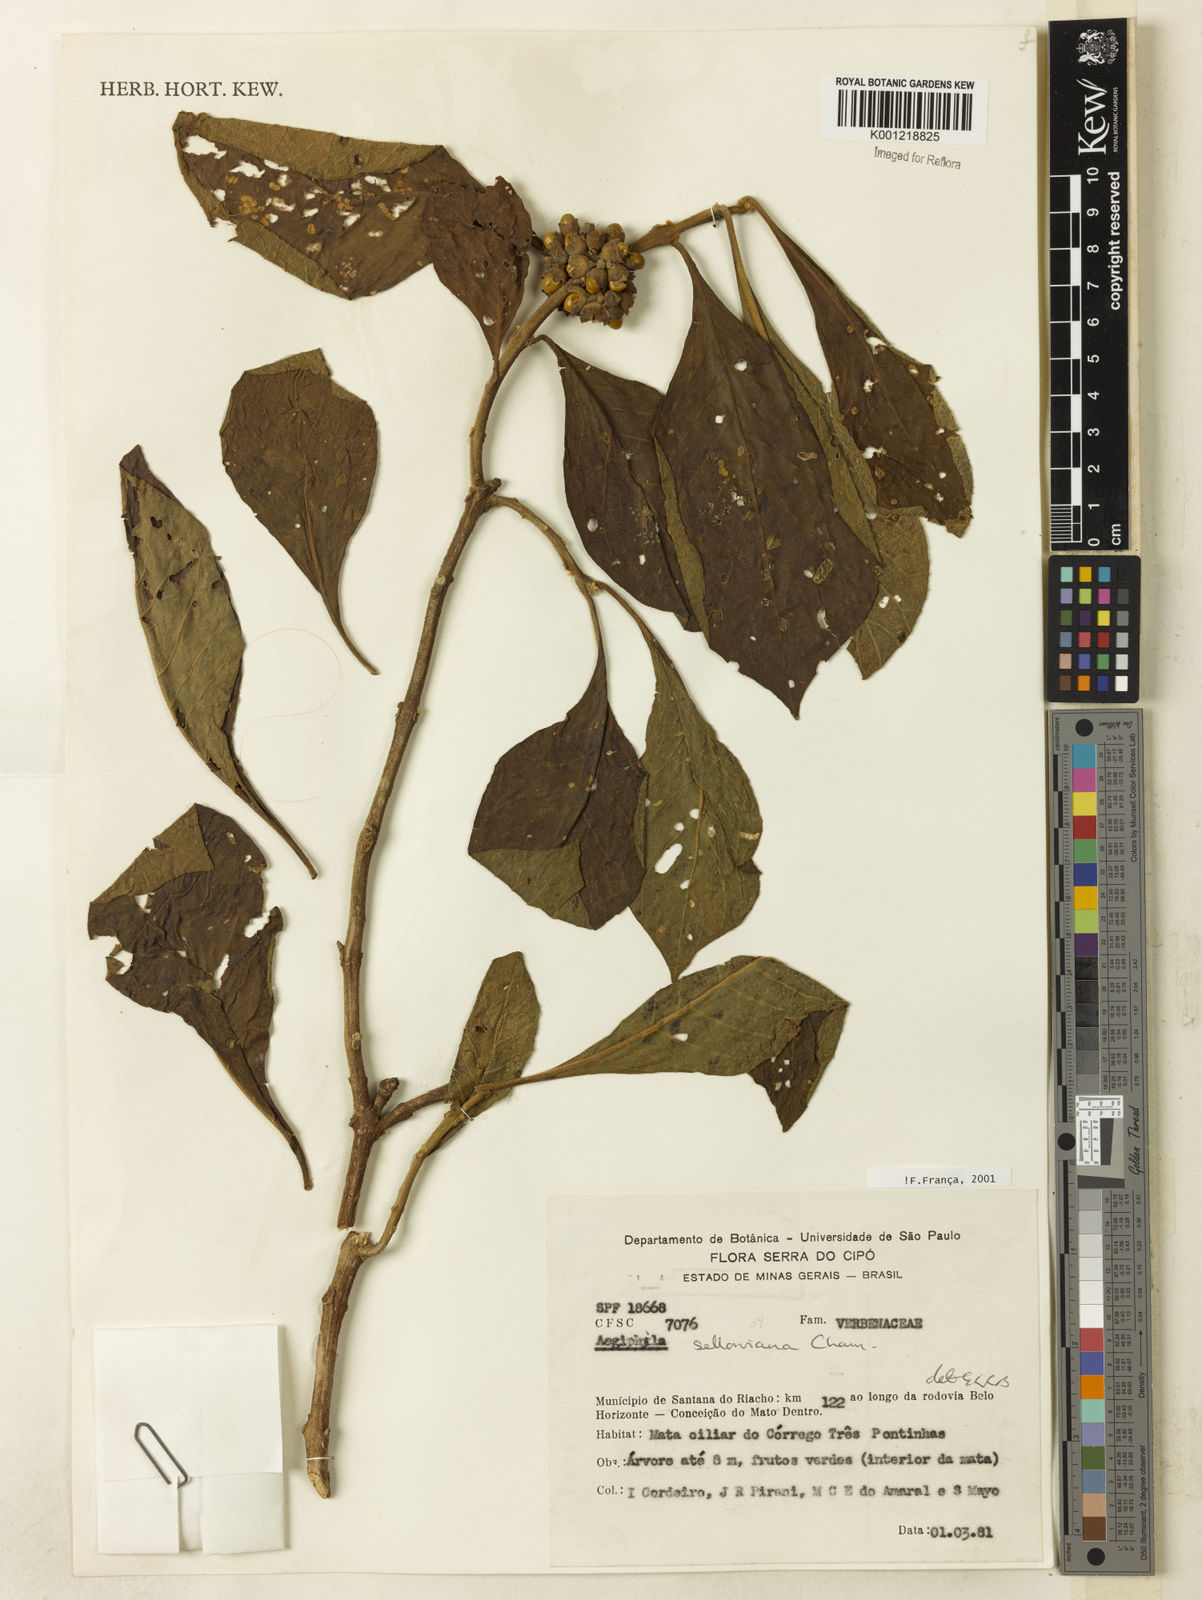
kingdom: Plantae
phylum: Tracheophyta
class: Magnoliopsida
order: Lamiales
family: Lamiaceae
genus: Aegiphila
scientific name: Aegiphila verticillata
